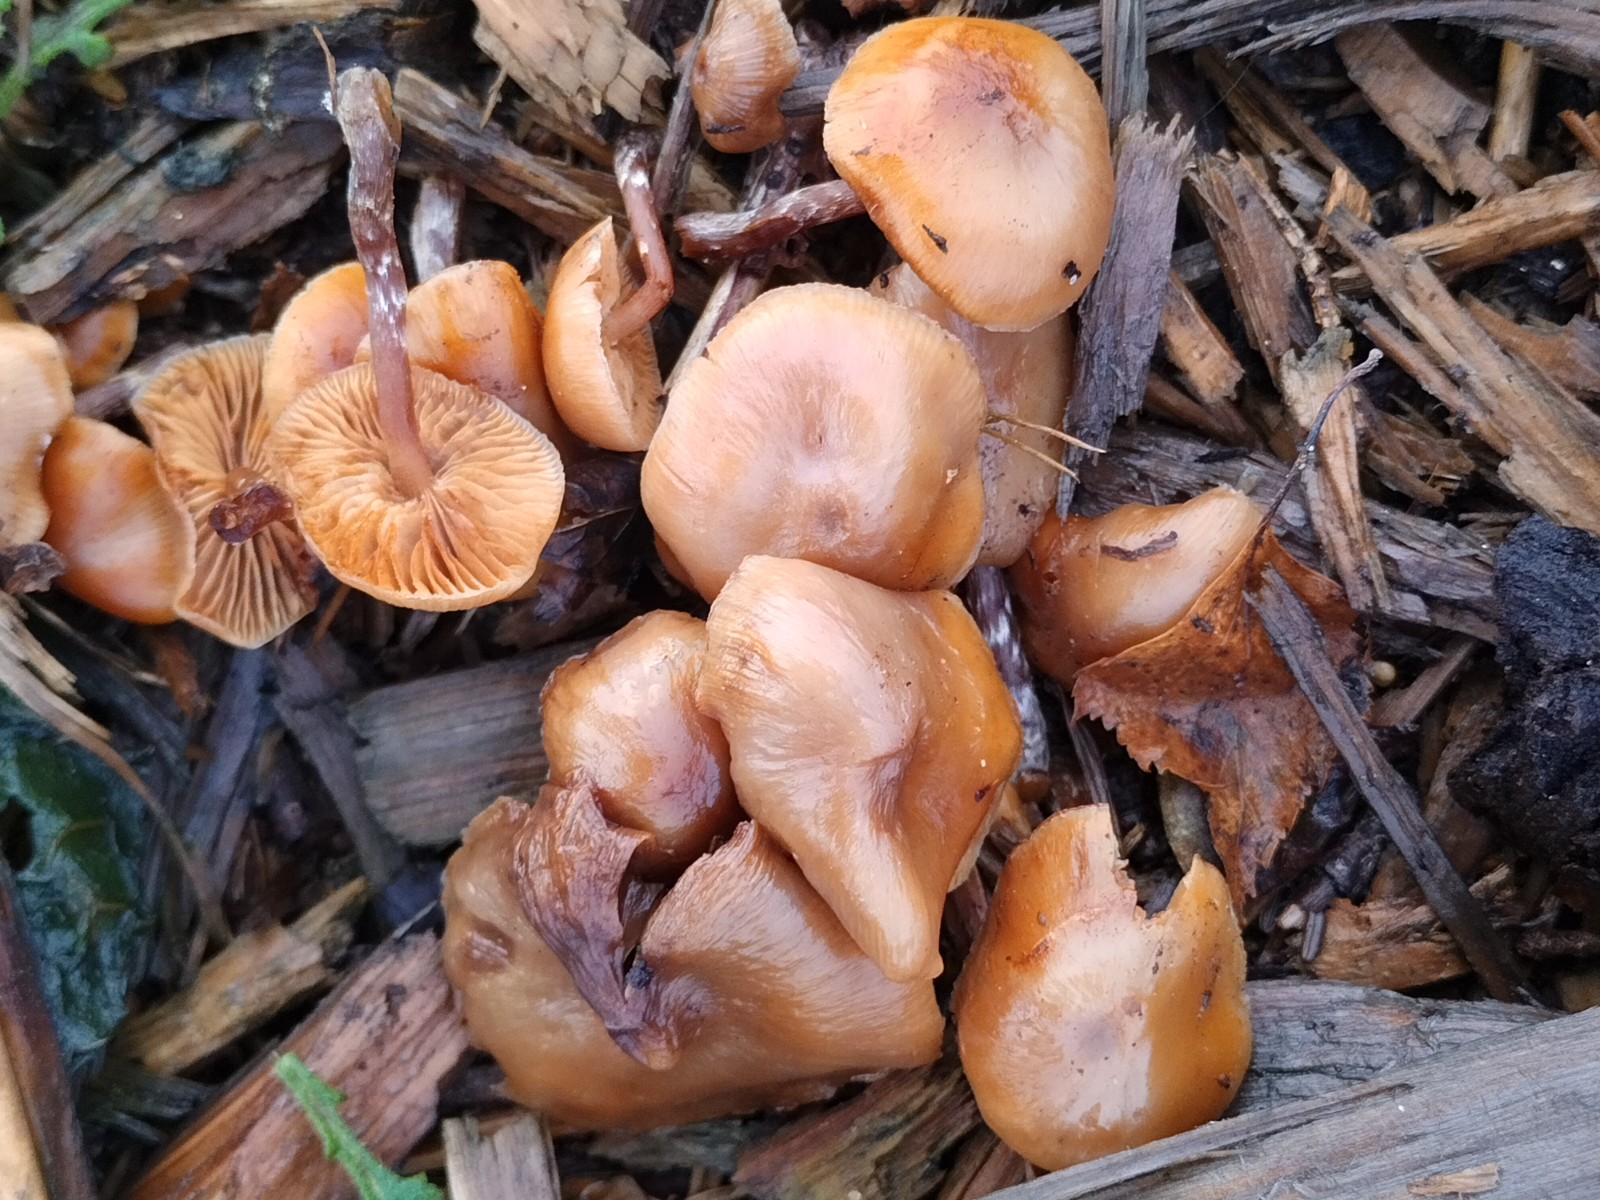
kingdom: Fungi
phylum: Basidiomycota
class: Agaricomycetes
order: Agaricales
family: Hymenogastraceae
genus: Galerina
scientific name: Galerina sideroides
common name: træflis-hjelmhat
